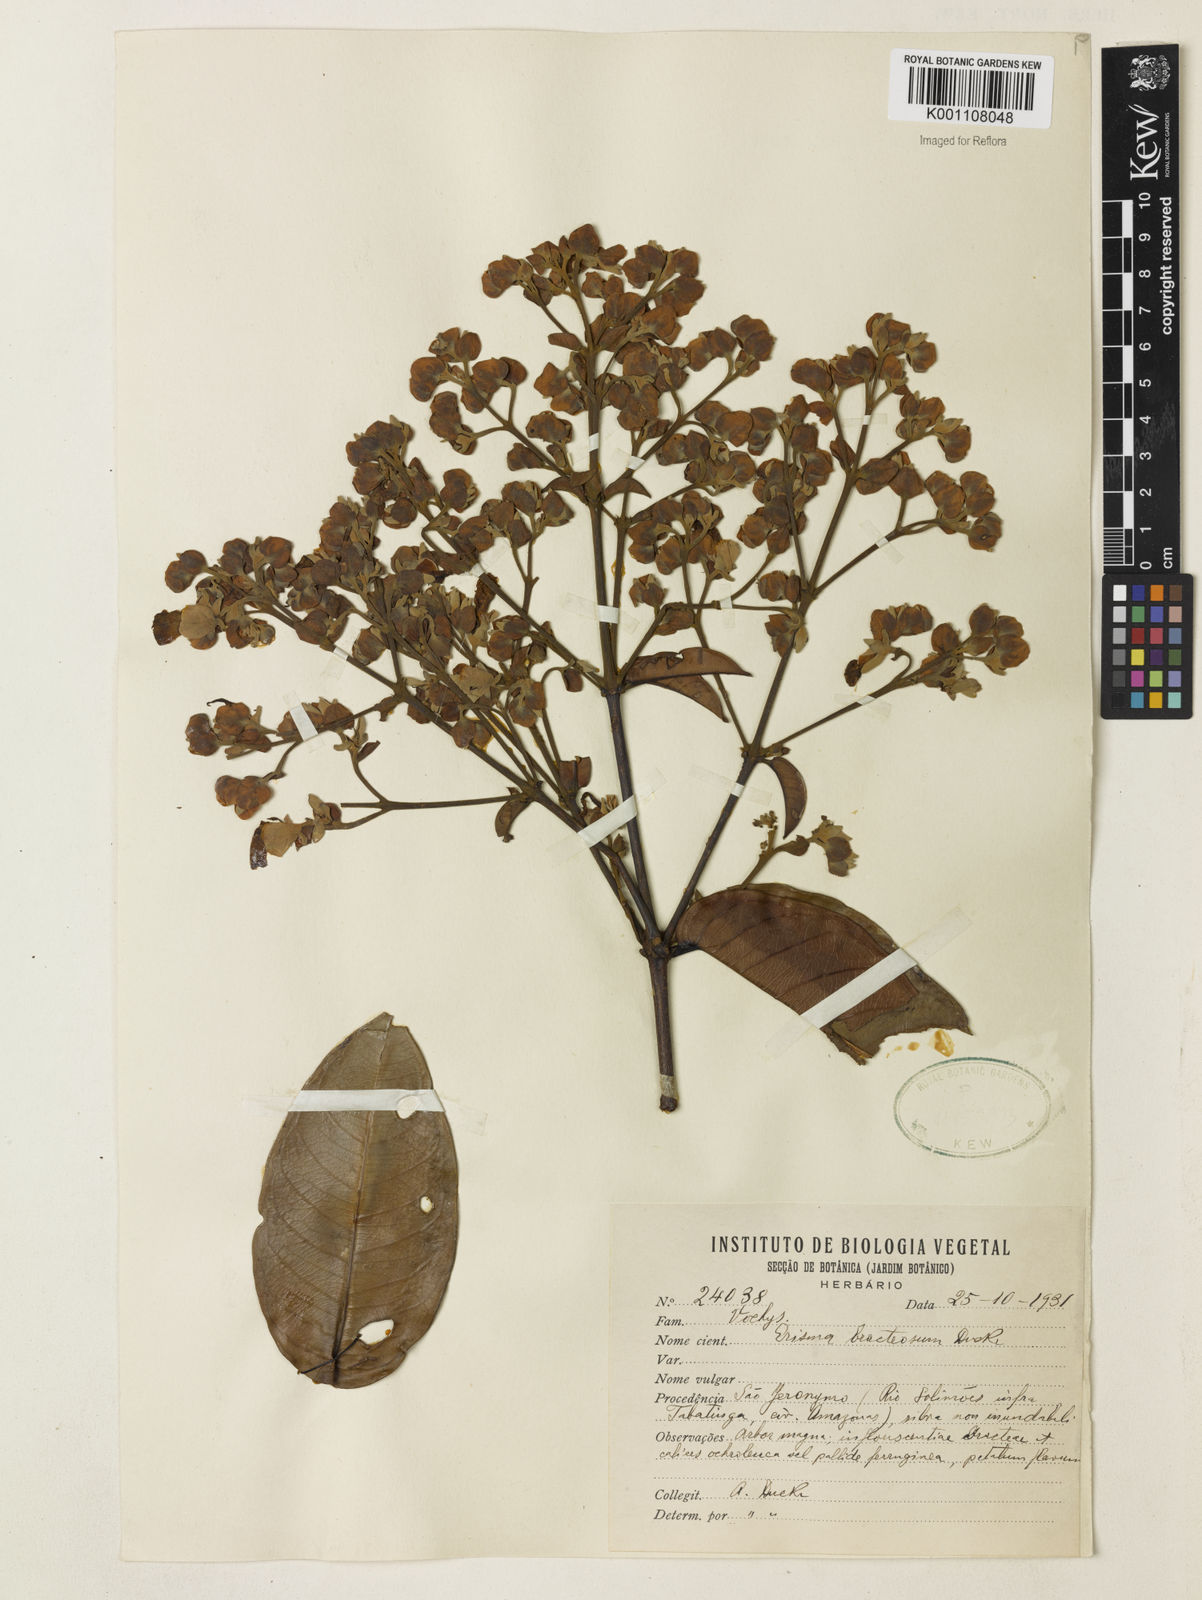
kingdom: Plantae
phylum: Tracheophyta
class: Magnoliopsida
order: Myrtales
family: Vochysiaceae
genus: Erisma
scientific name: Erisma bracteosum
